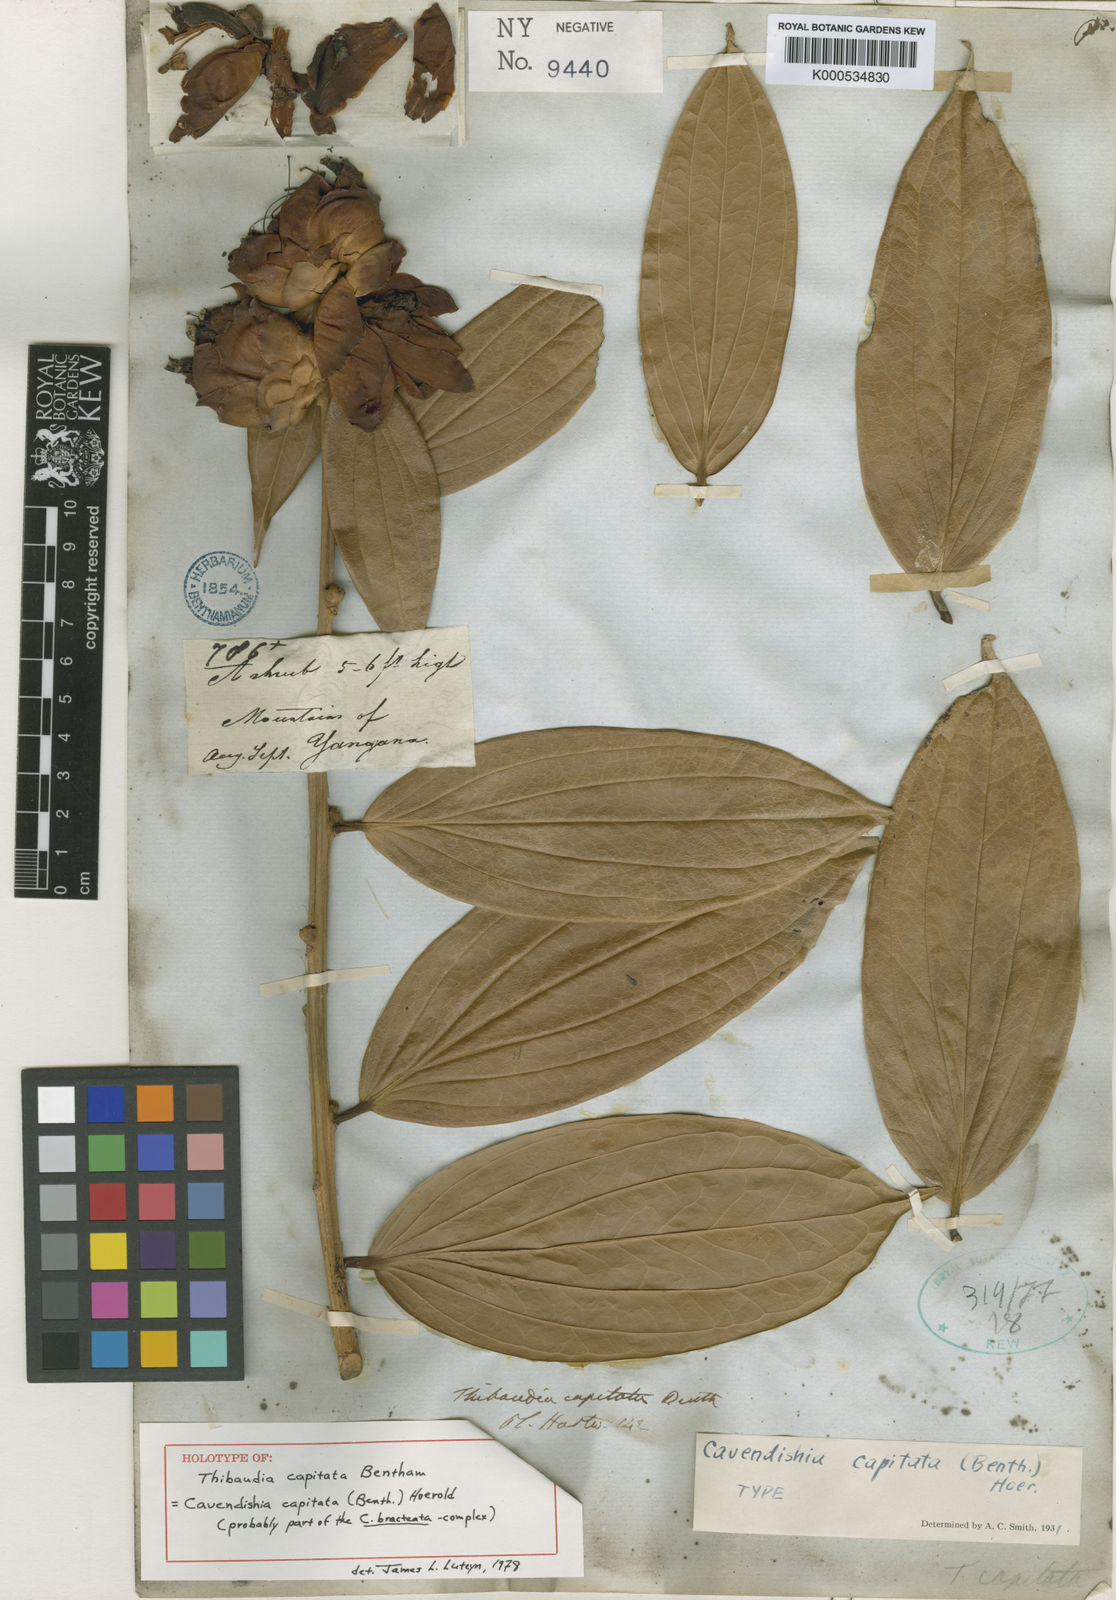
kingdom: Plantae
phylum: Tracheophyta
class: Magnoliopsida
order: Ericales
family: Ericaceae
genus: Cavendishia
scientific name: Cavendishia nobilis
